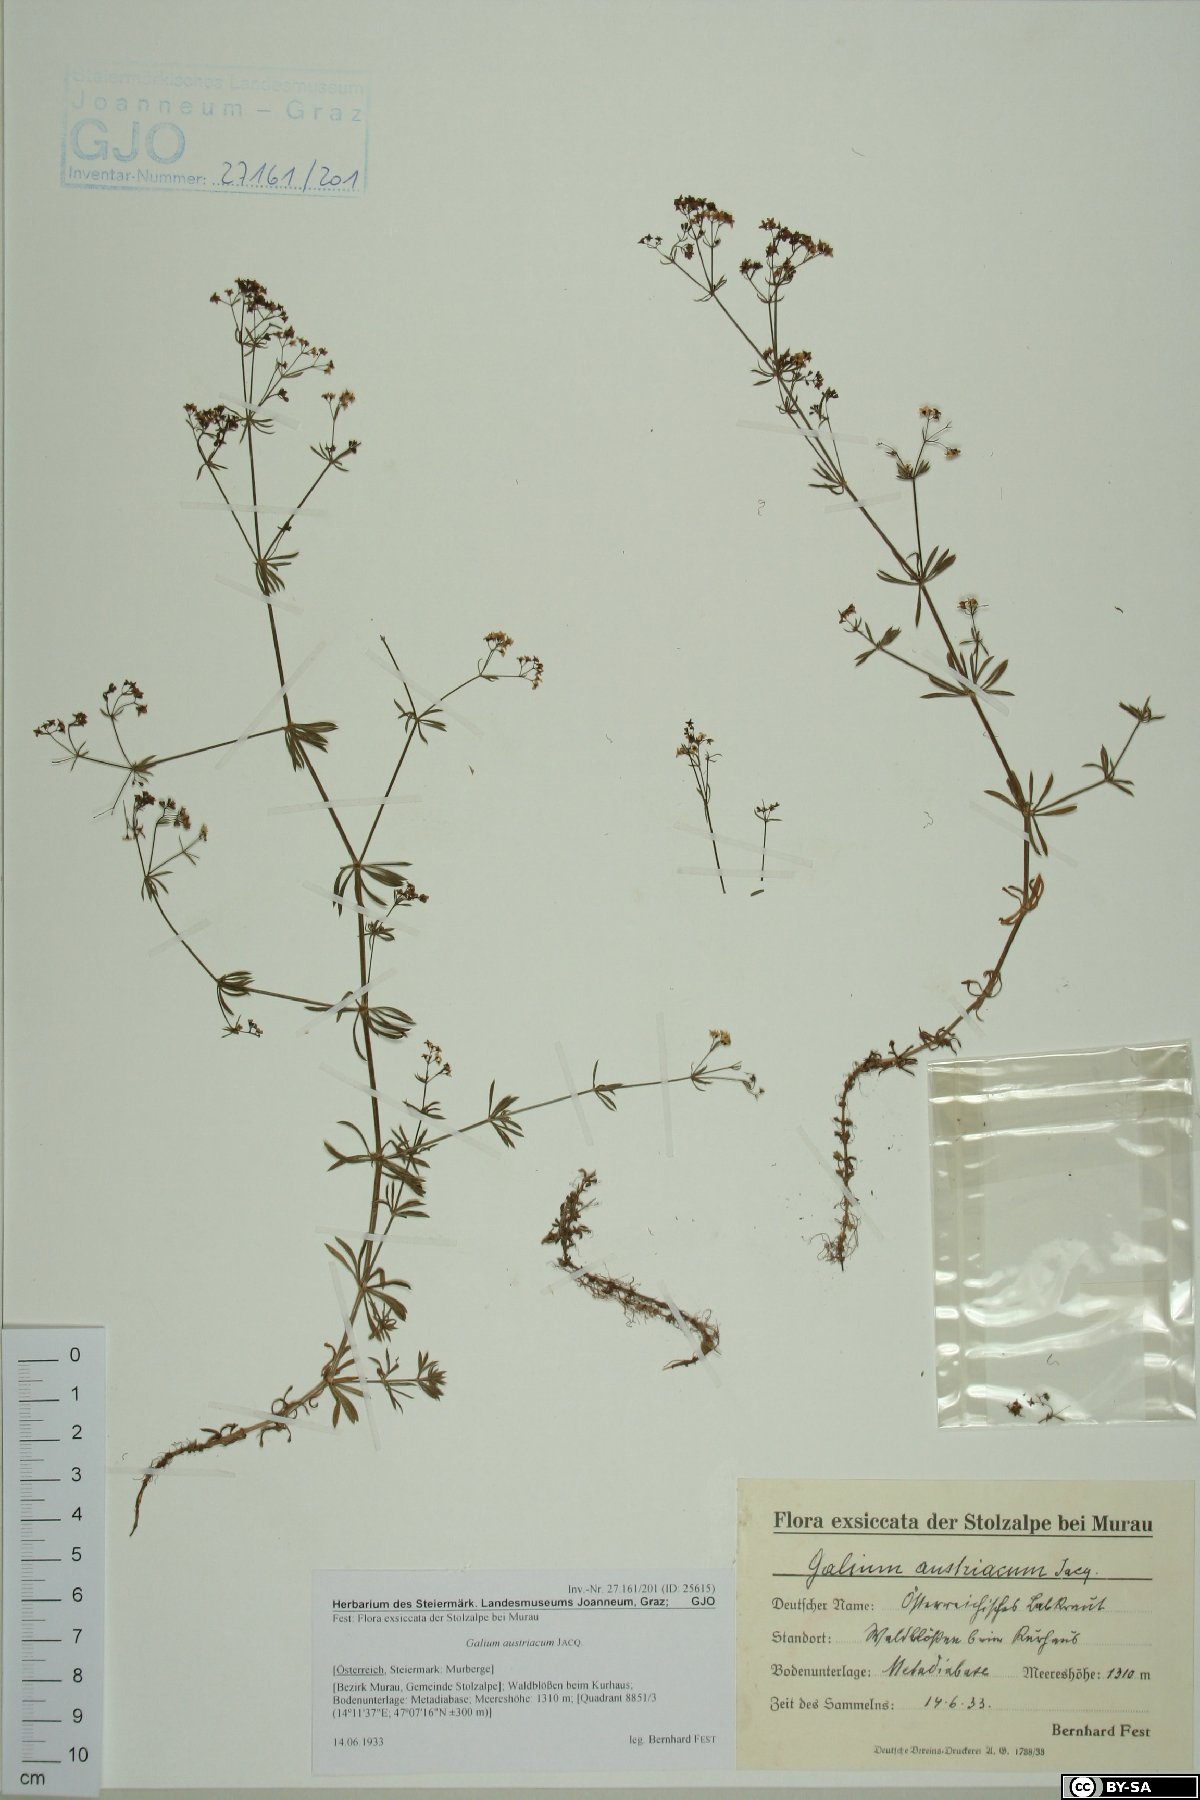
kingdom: Plantae
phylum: Tracheophyta
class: Magnoliopsida
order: Gentianales
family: Rubiaceae
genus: Galium
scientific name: Galium austriacum
